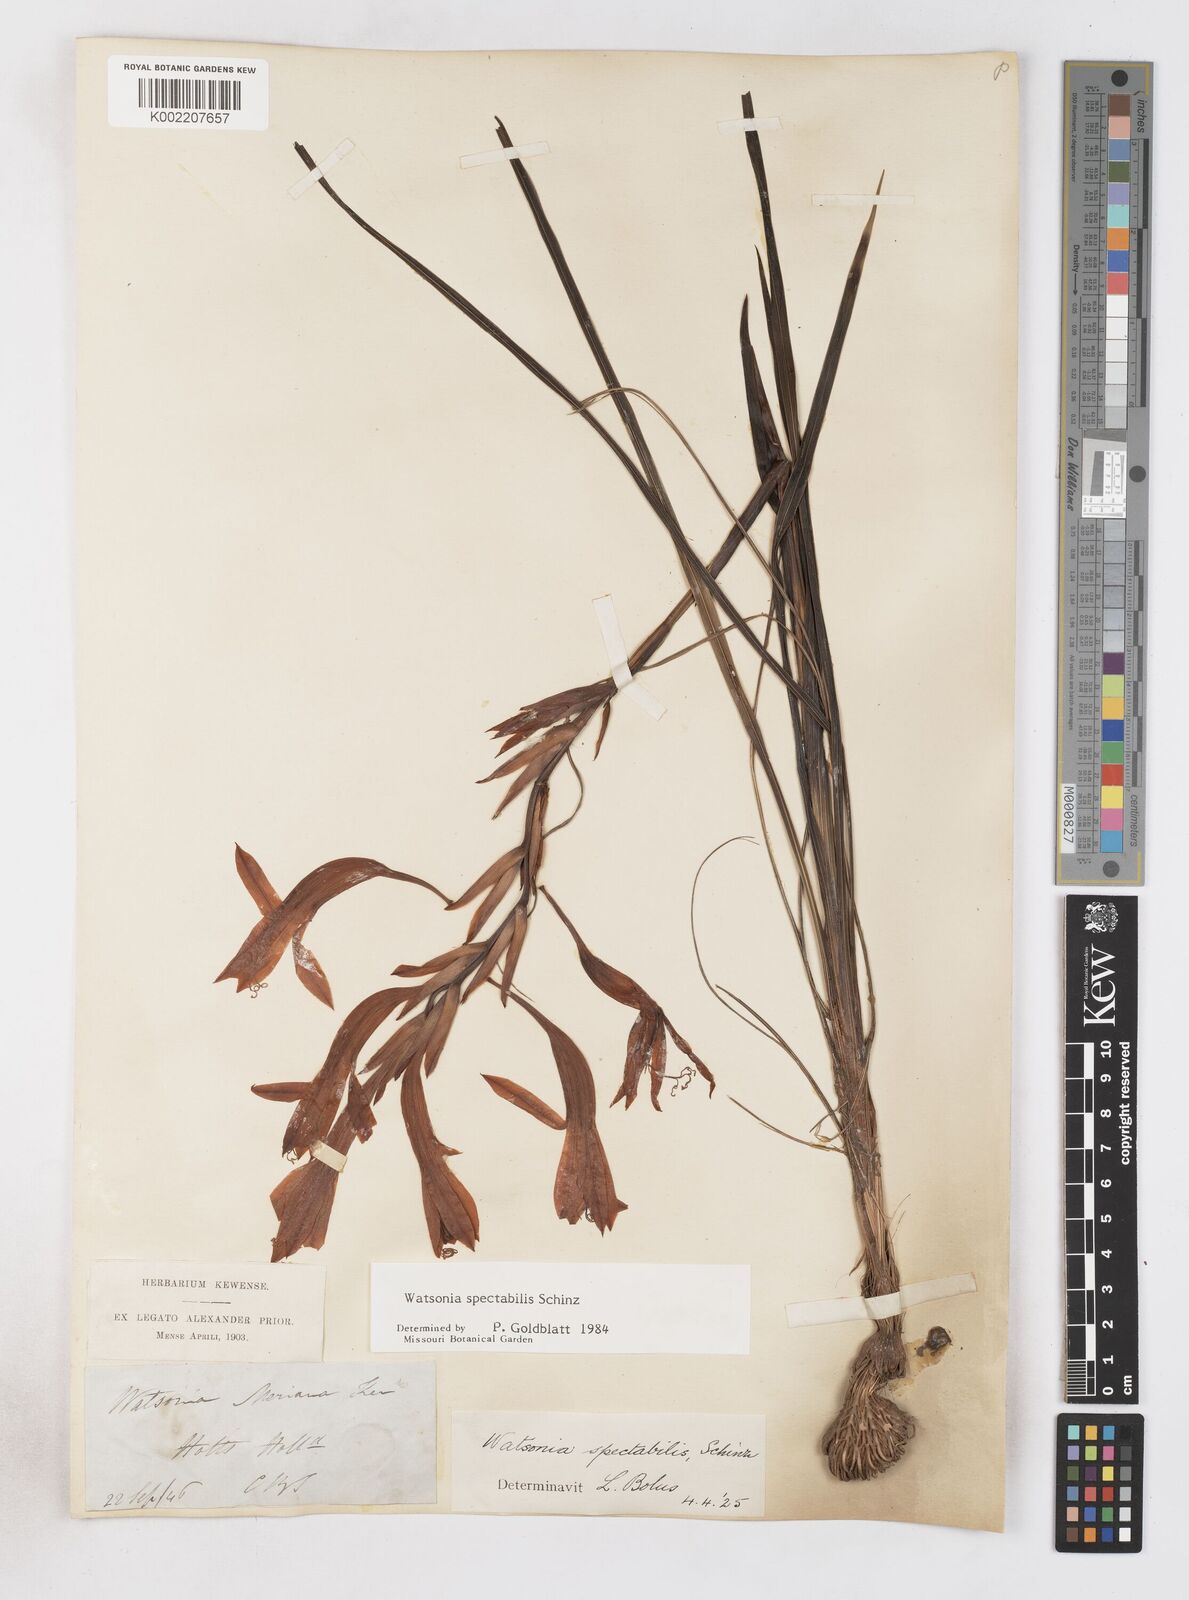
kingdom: Plantae
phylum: Tracheophyta
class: Liliopsida
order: Asparagales
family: Iridaceae
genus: Watsonia
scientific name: Watsonia spectabilis
